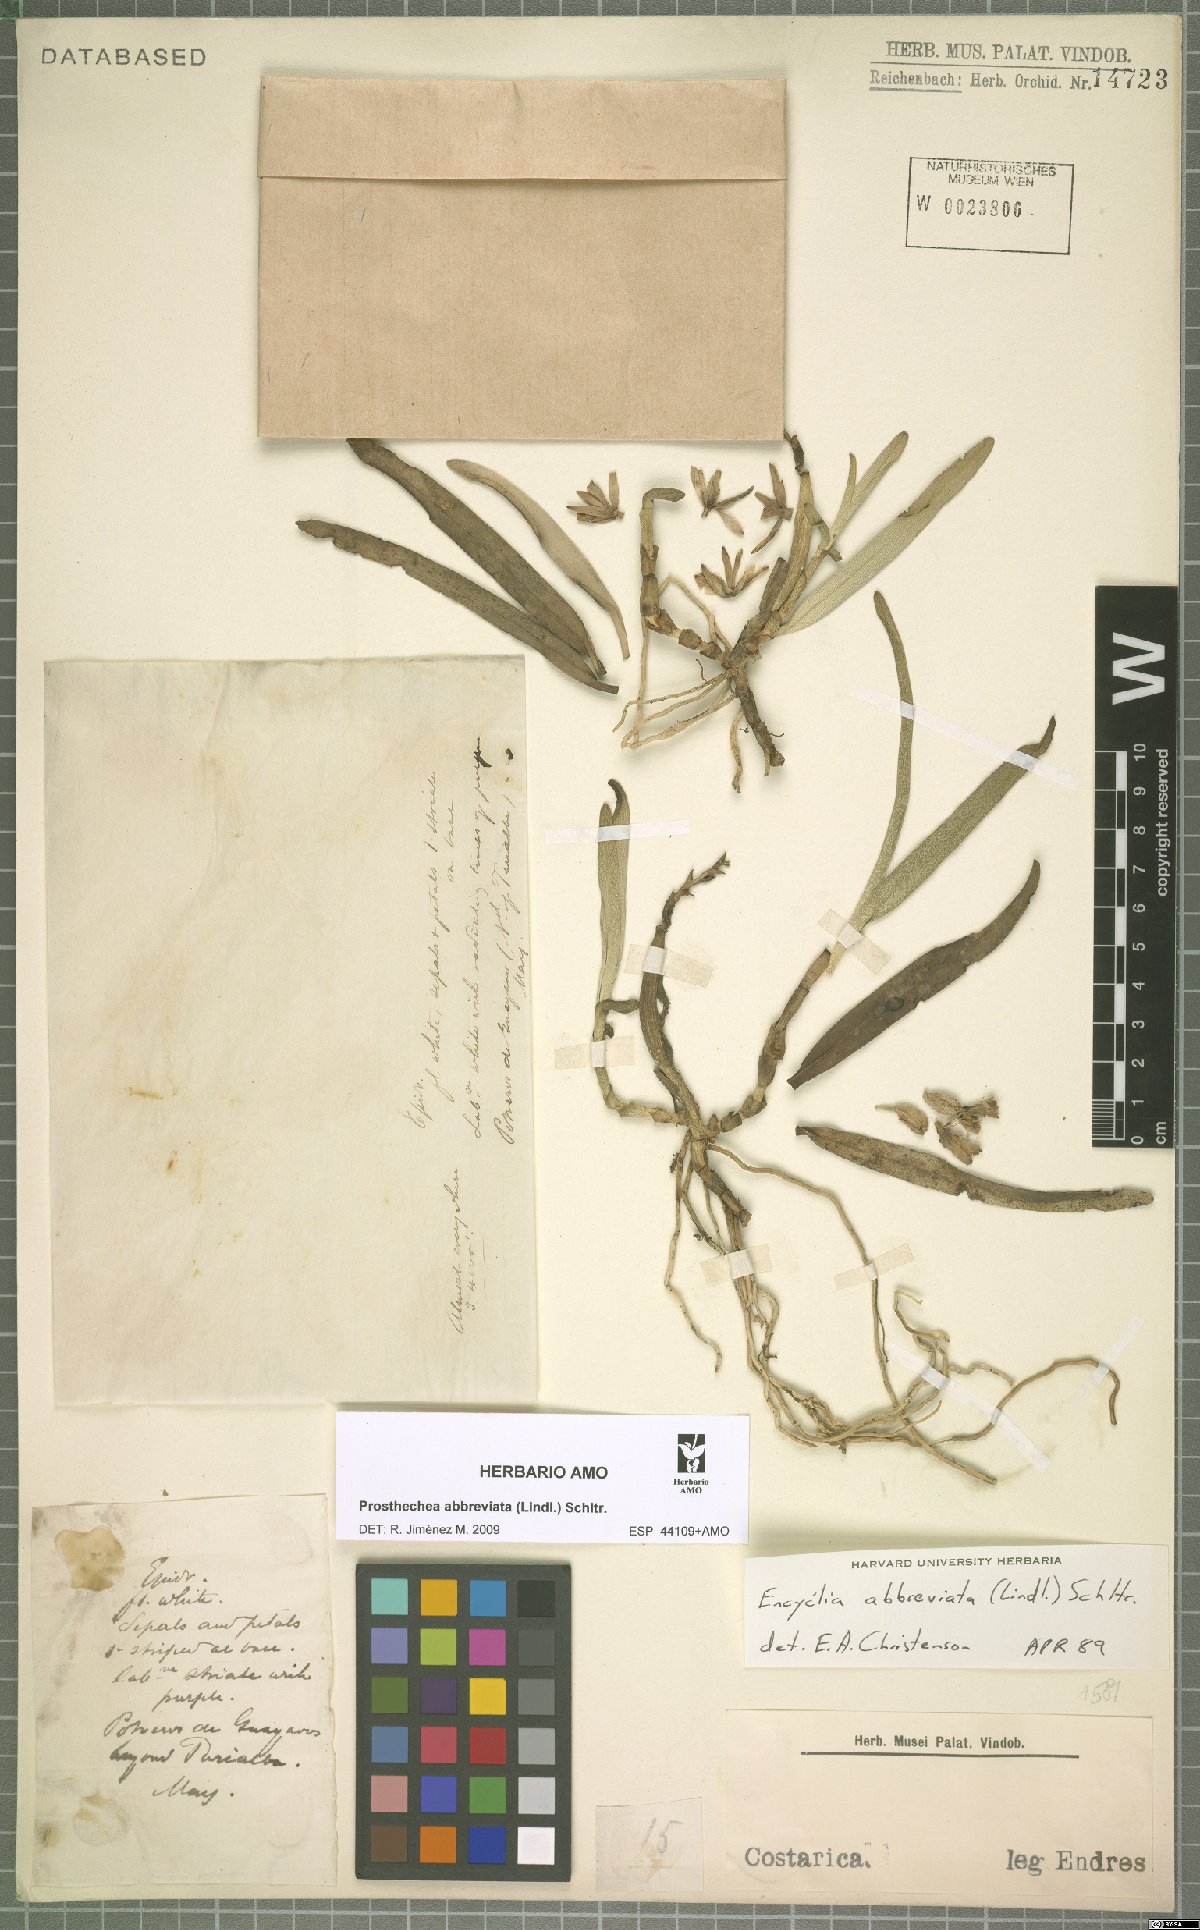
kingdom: Plantae
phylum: Tracheophyta
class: Liliopsida
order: Asparagales
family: Orchidaceae
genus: Prosthechea
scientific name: Prosthechea abbreviata
